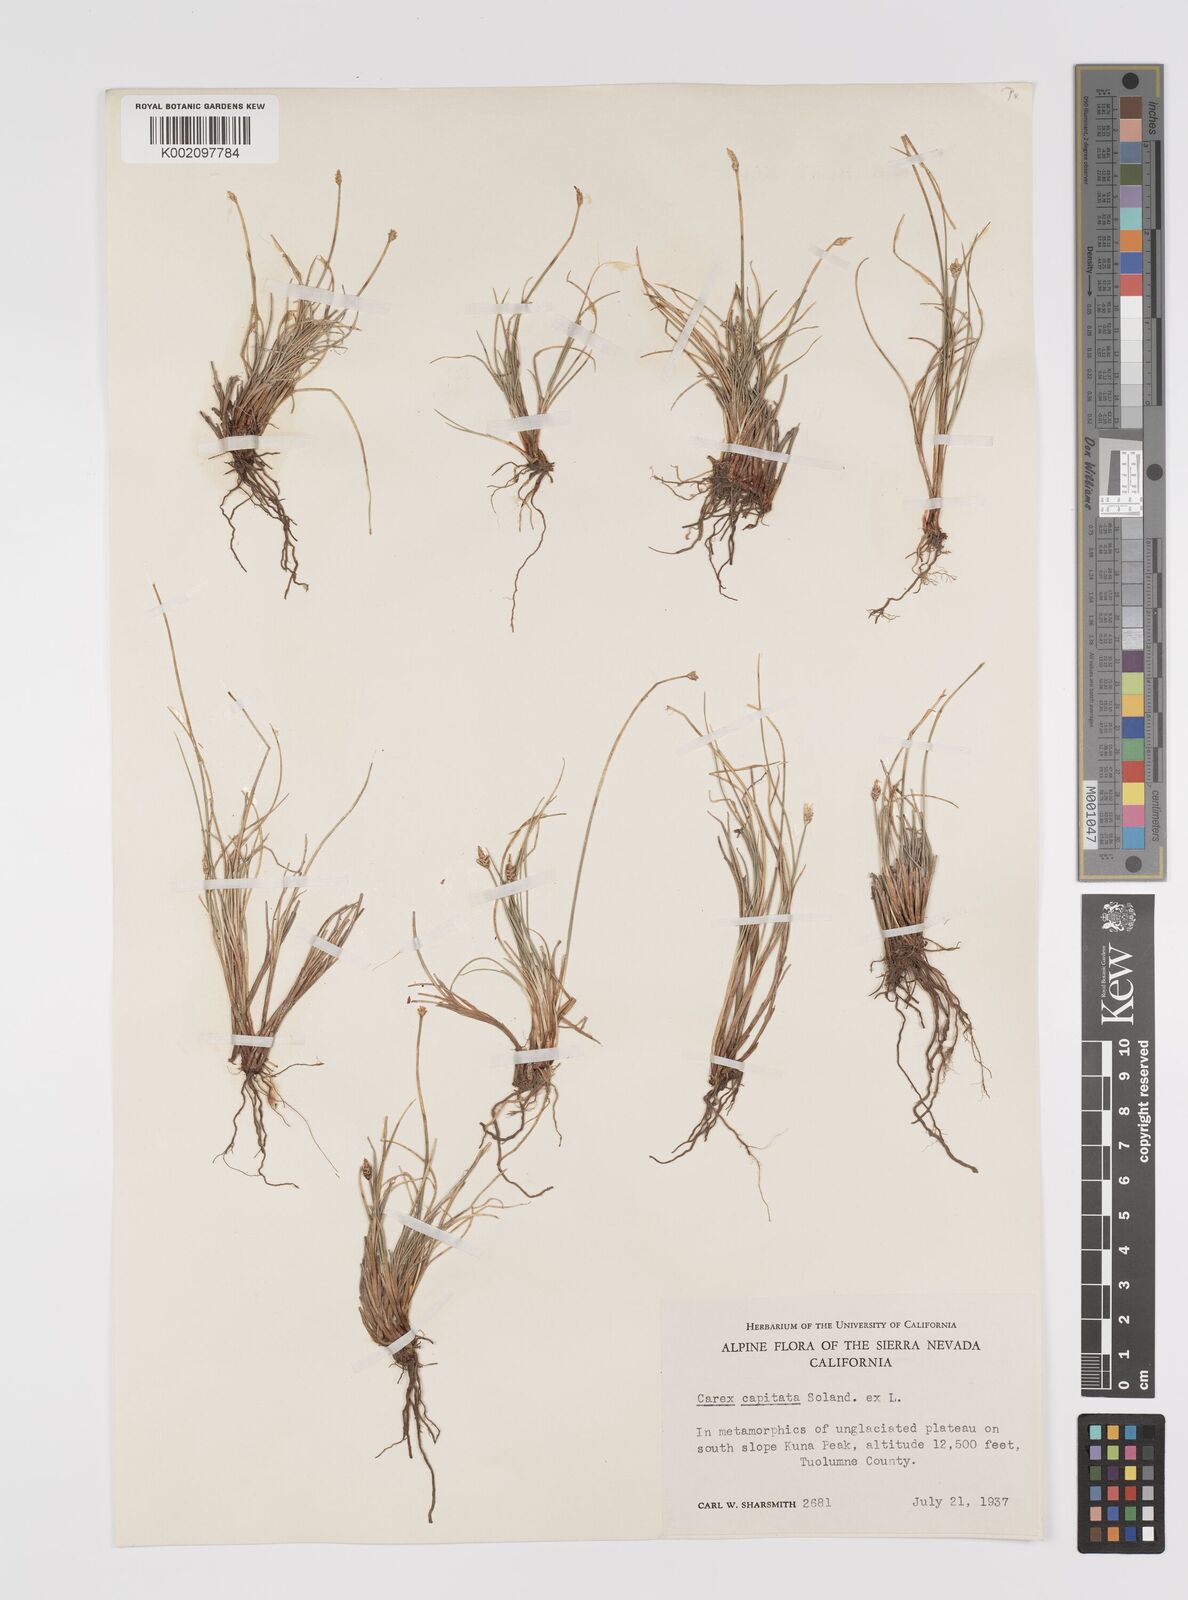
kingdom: Plantae
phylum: Tracheophyta
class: Liliopsida
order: Poales
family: Cyperaceae
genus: Carex
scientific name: Carex capitata
